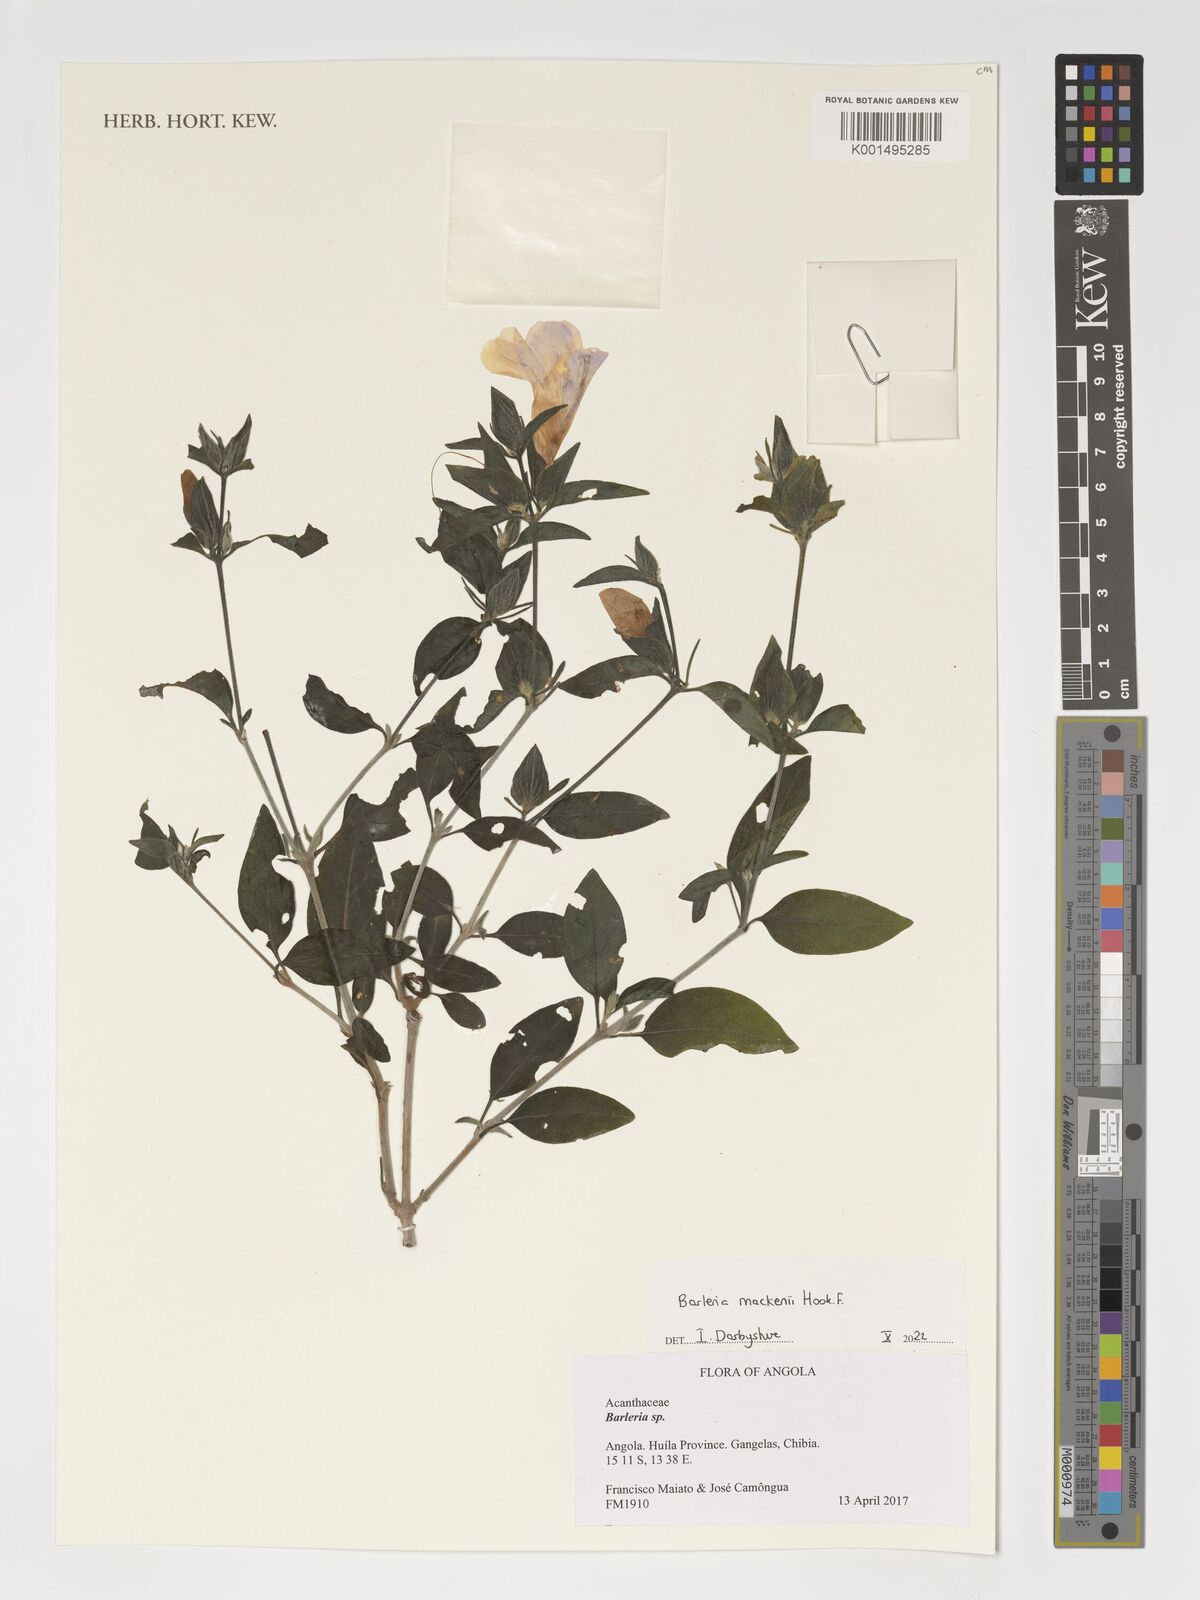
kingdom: Plantae
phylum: Tracheophyta
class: Magnoliopsida
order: Lamiales
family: Acanthaceae
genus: Barleria
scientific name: Barleria mackenii
